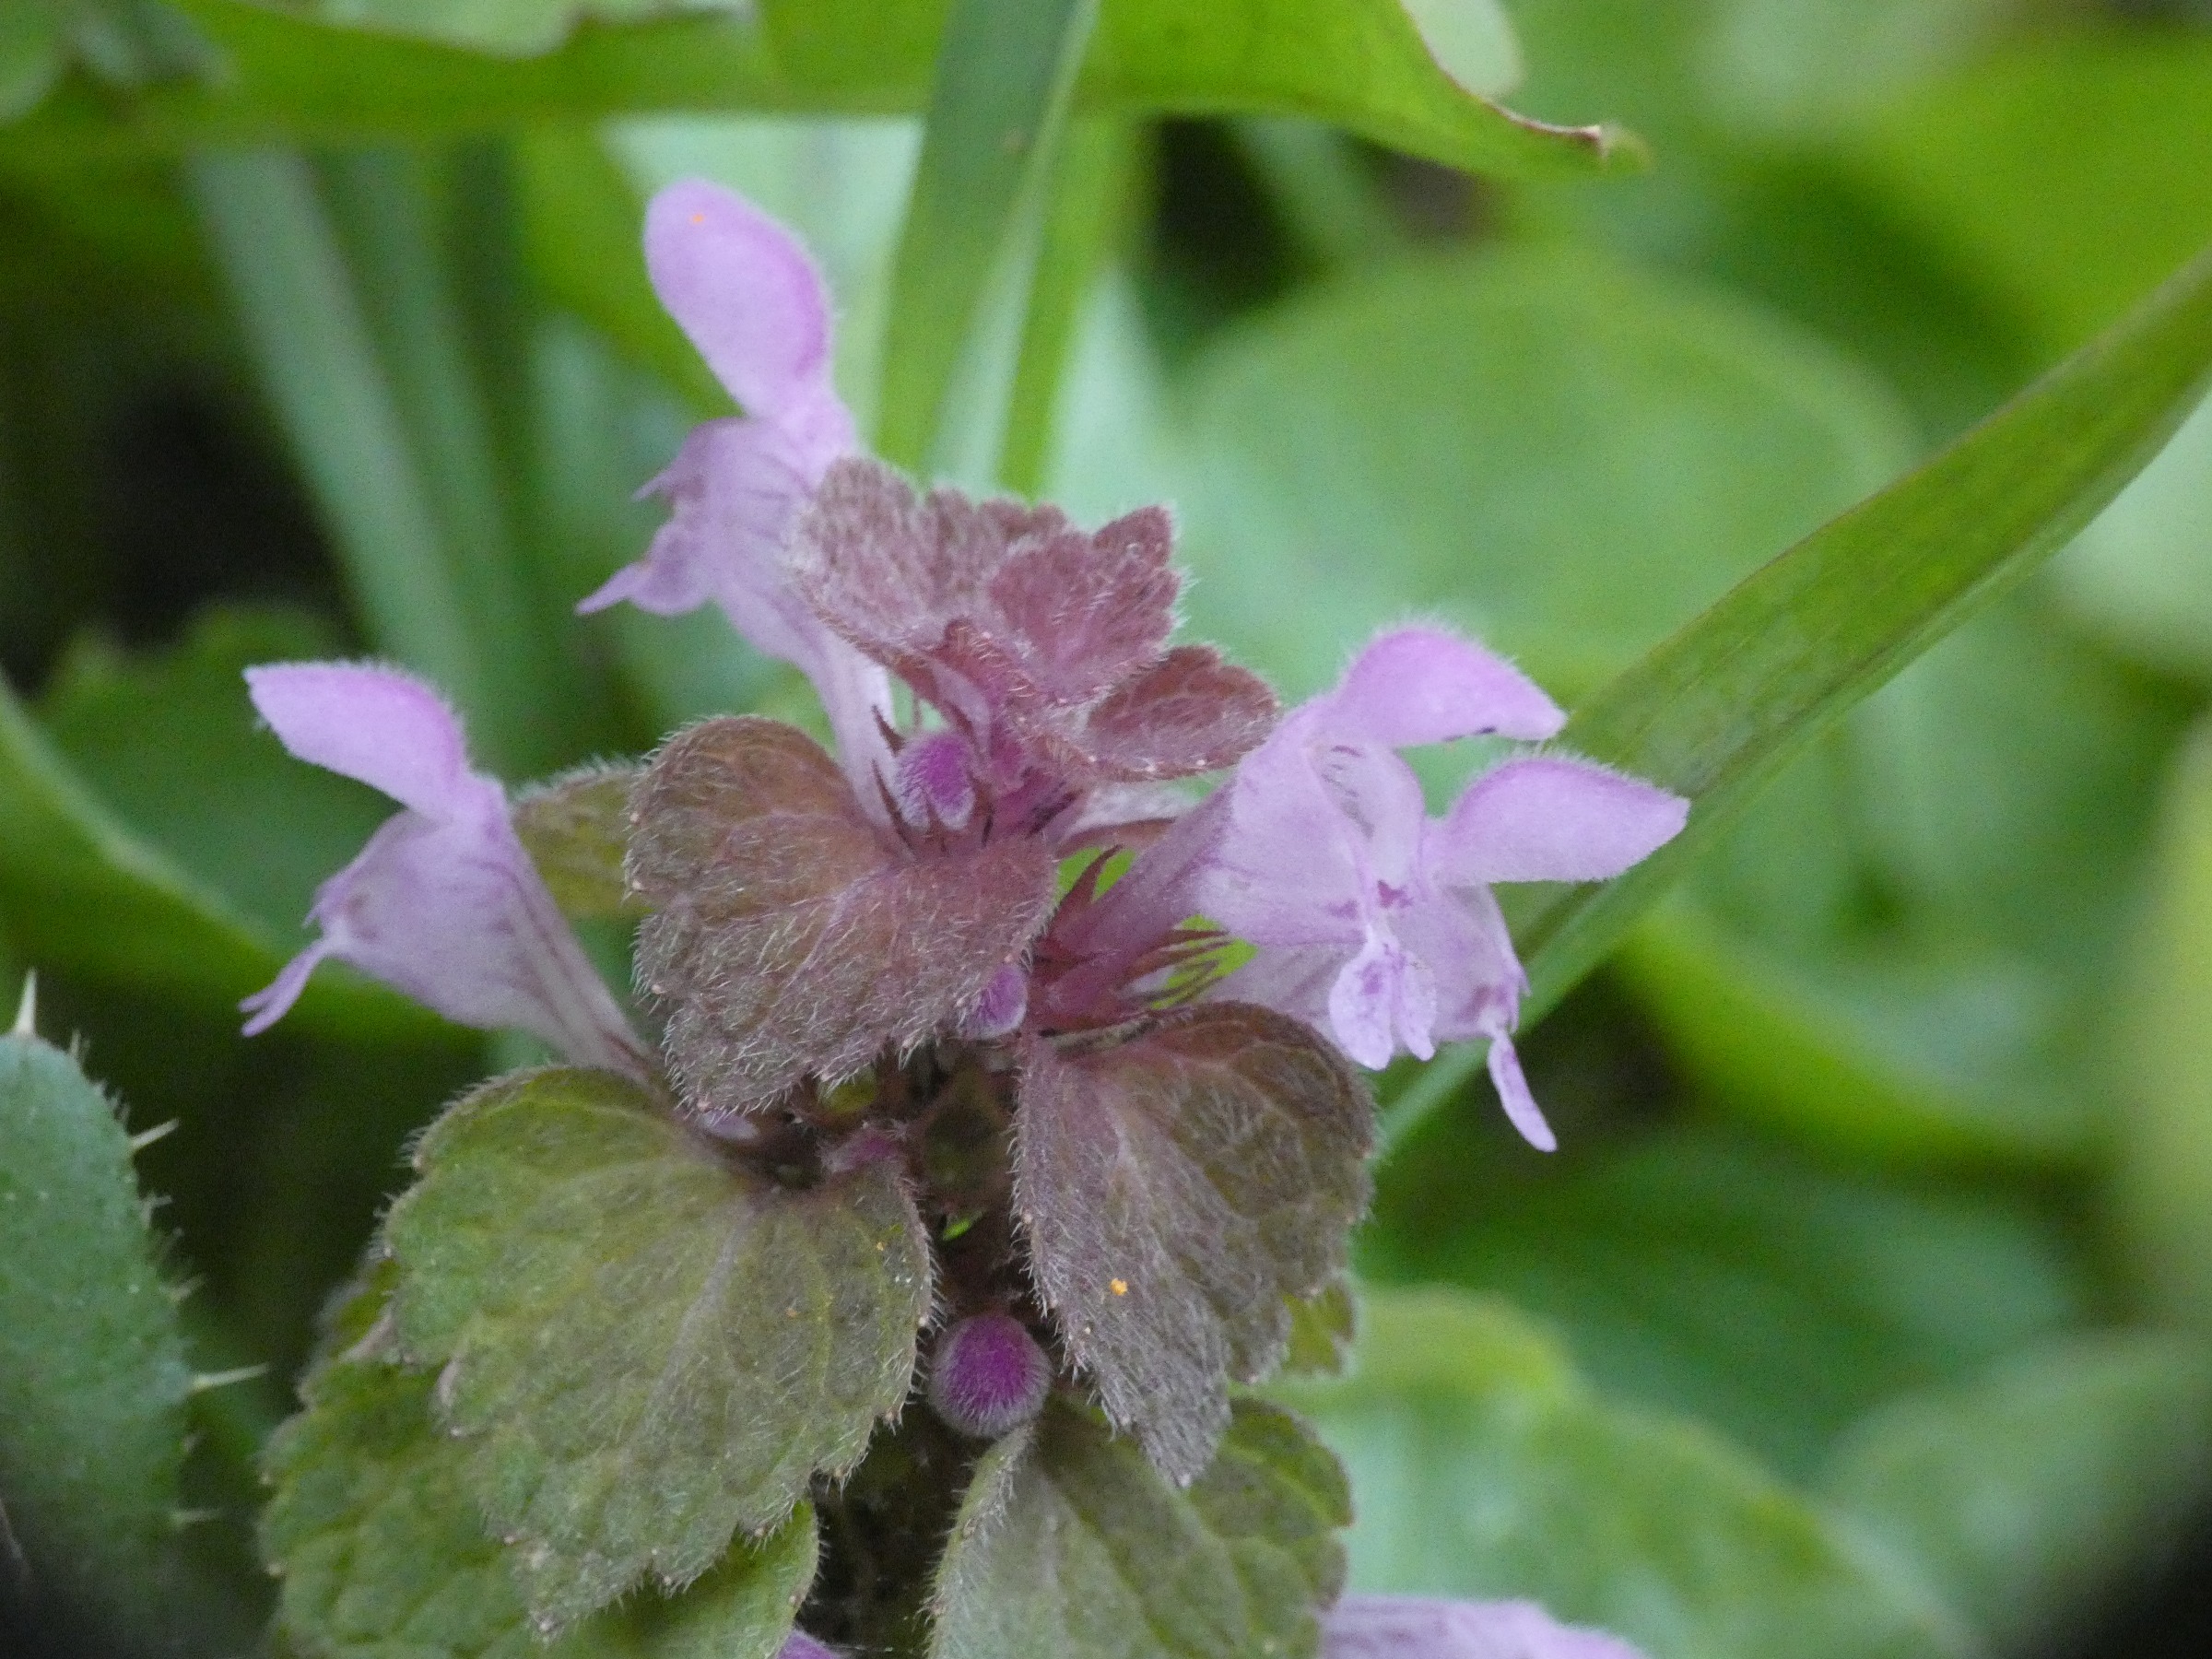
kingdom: Plantae
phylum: Tracheophyta
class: Magnoliopsida
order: Lamiales
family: Lamiaceae
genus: Lamium
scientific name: Lamium purpureum
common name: Rød tvetand
